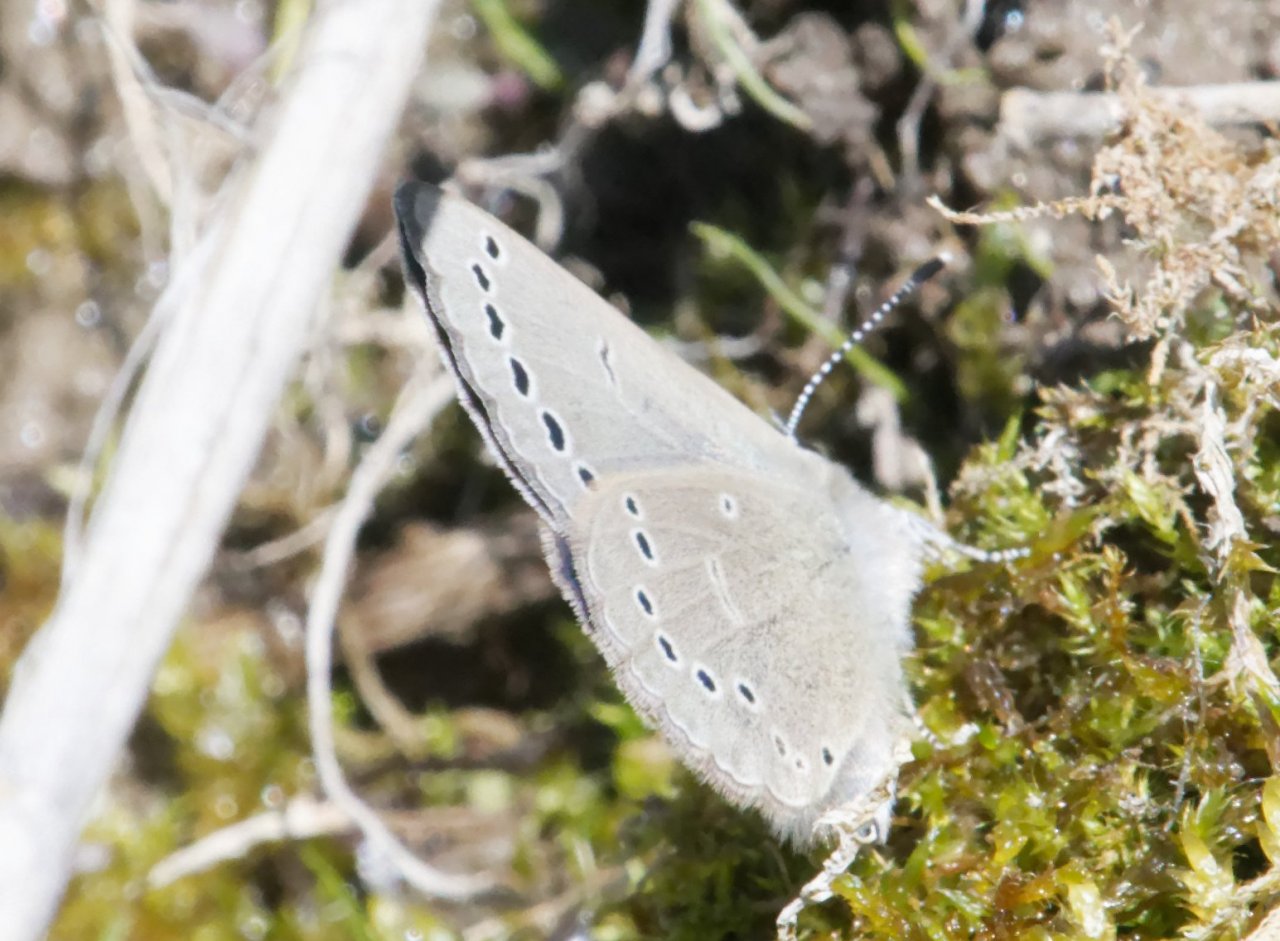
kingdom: Animalia
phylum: Arthropoda
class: Insecta
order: Lepidoptera
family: Lycaenidae
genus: Glaucopsyche
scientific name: Glaucopsyche lygdamus
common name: Silvery Blue
